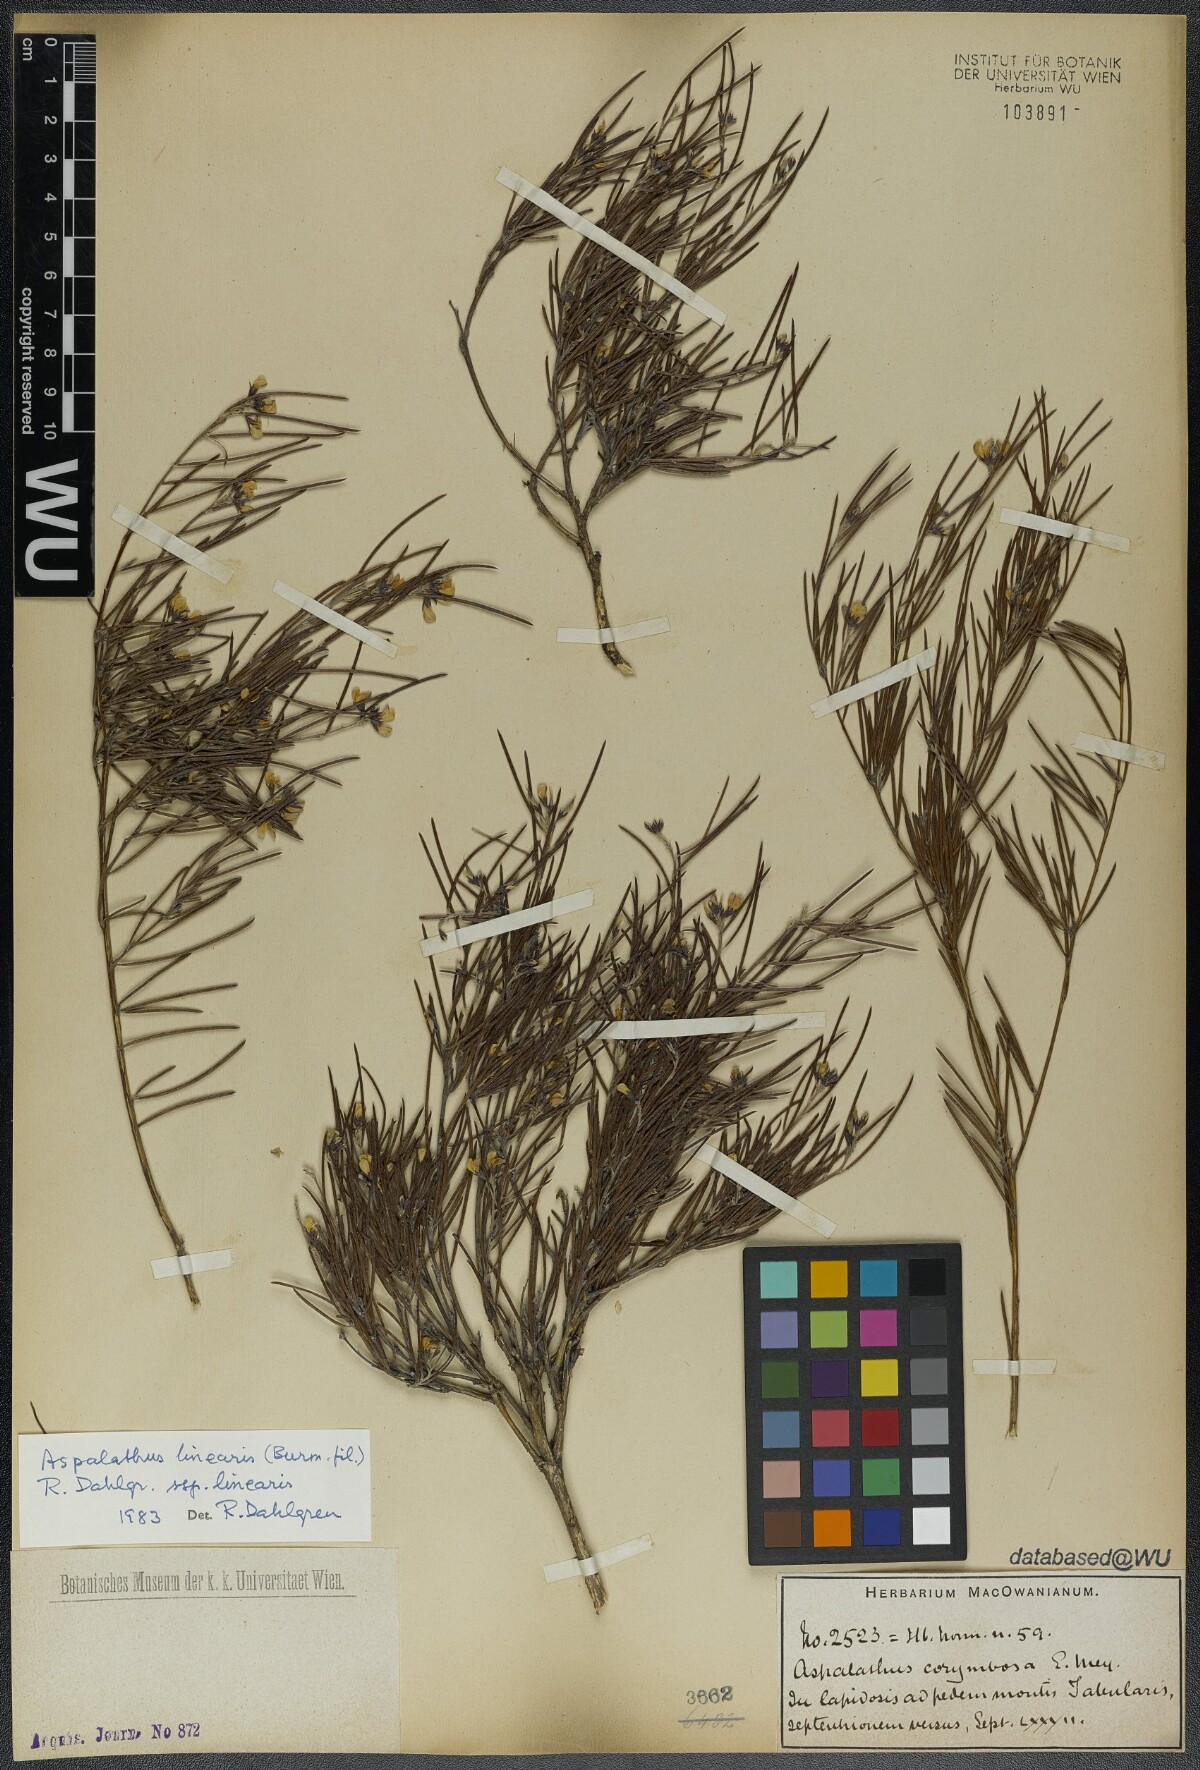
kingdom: Plantae
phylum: Tracheophyta
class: Magnoliopsida
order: Fabales
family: Fabaceae
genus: Aspalathus
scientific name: Aspalathus linearis
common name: Rooibos-tea
